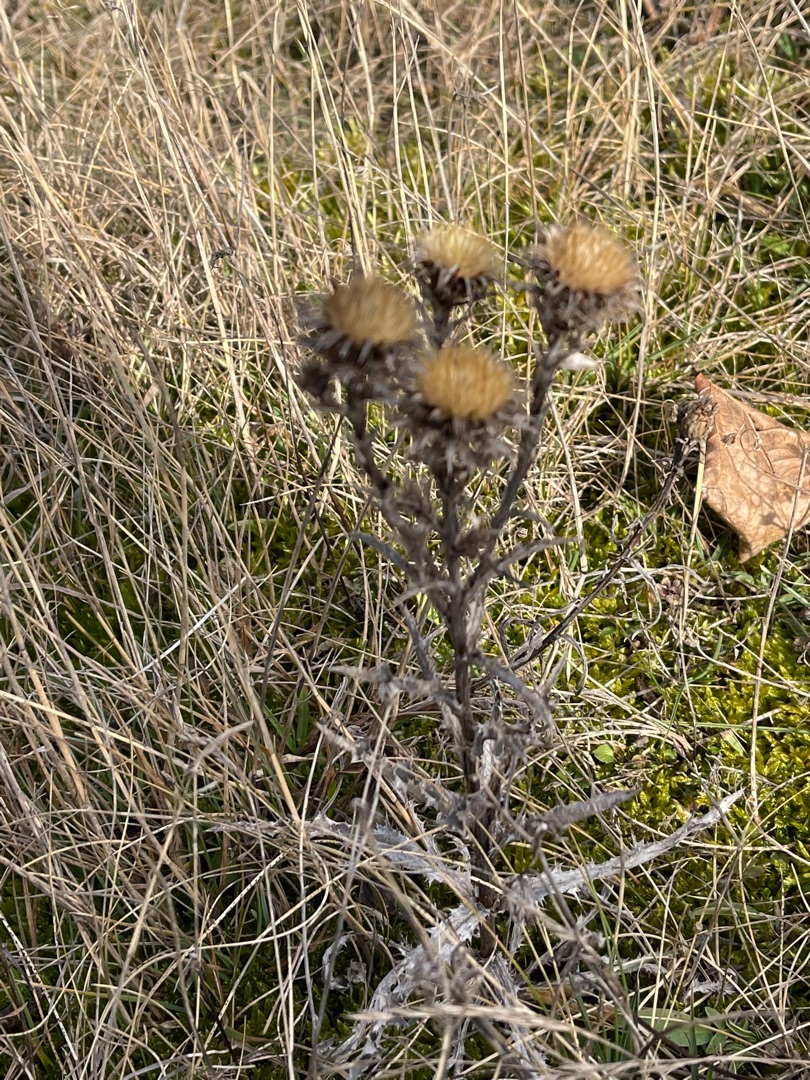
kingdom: Plantae
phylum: Tracheophyta
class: Magnoliopsida
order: Asterales
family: Asteraceae
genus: Carlina
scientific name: Carlina vulgaris
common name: Bakketidsel
